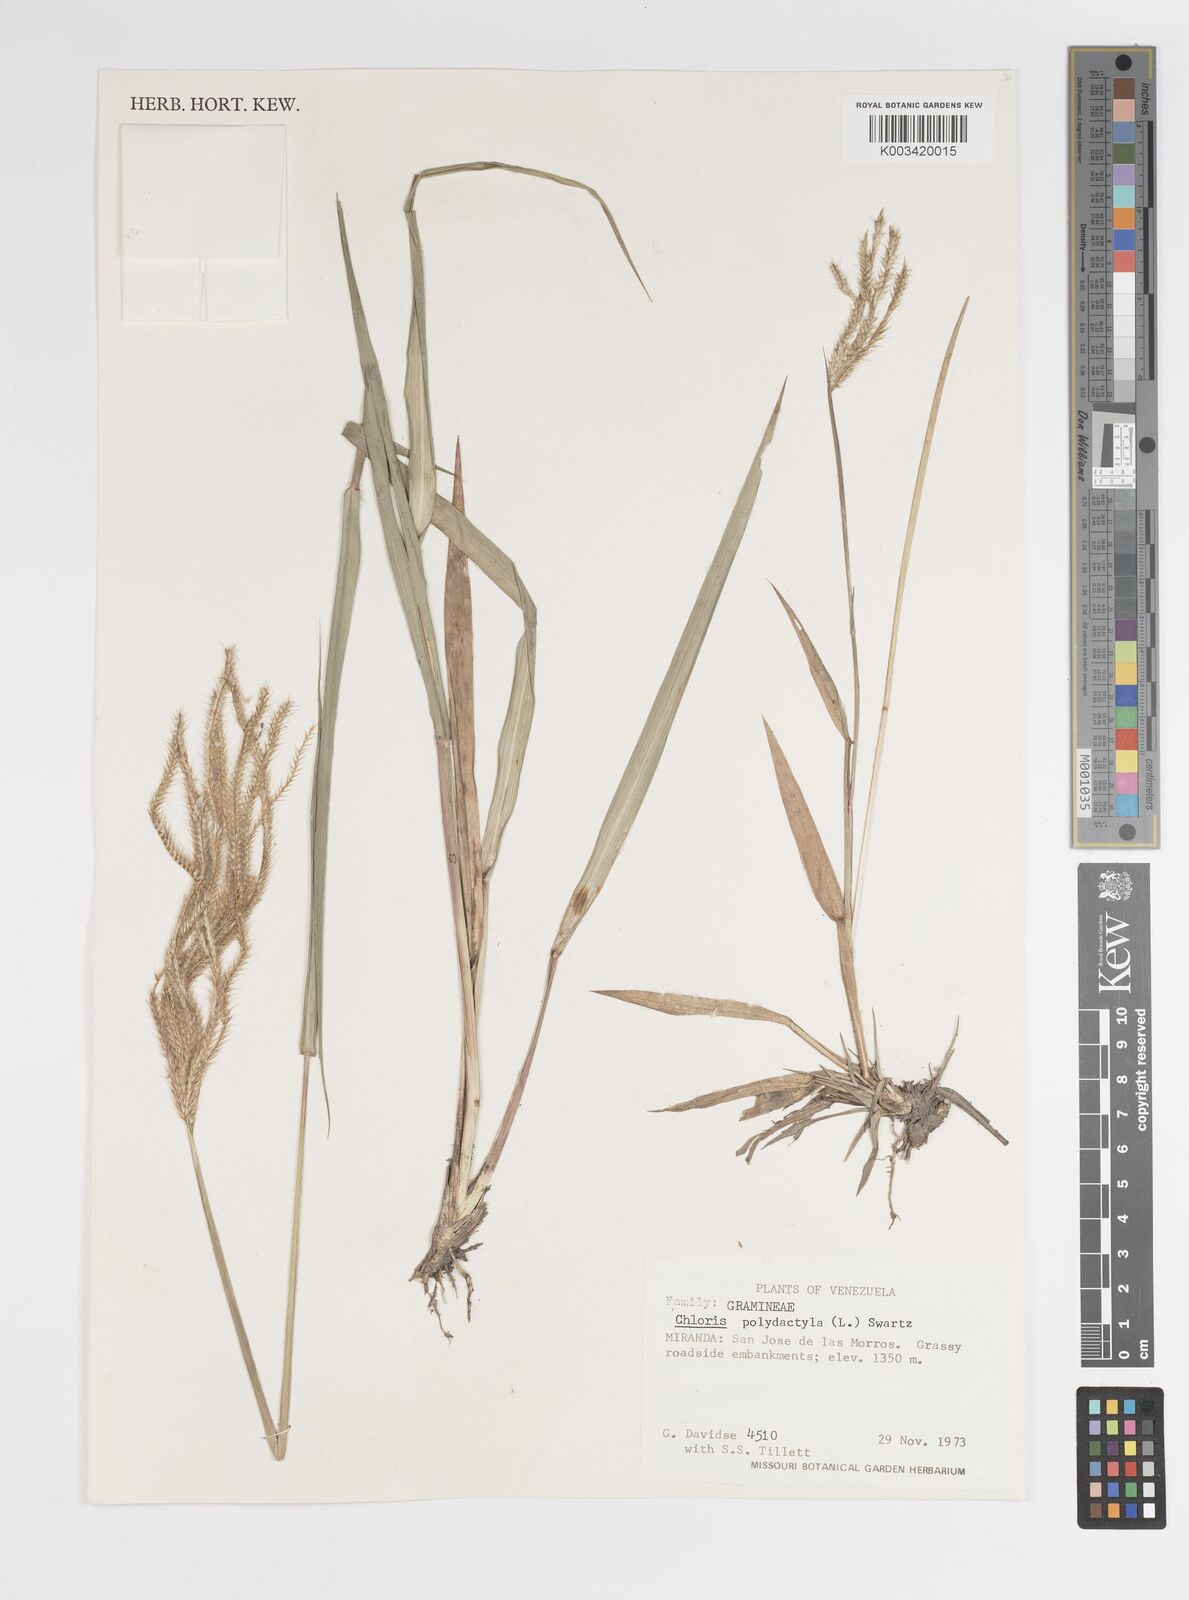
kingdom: Plantae
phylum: Tracheophyta
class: Liliopsida
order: Poales
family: Poaceae
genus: Stapfochloa
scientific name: Stapfochloa elata
